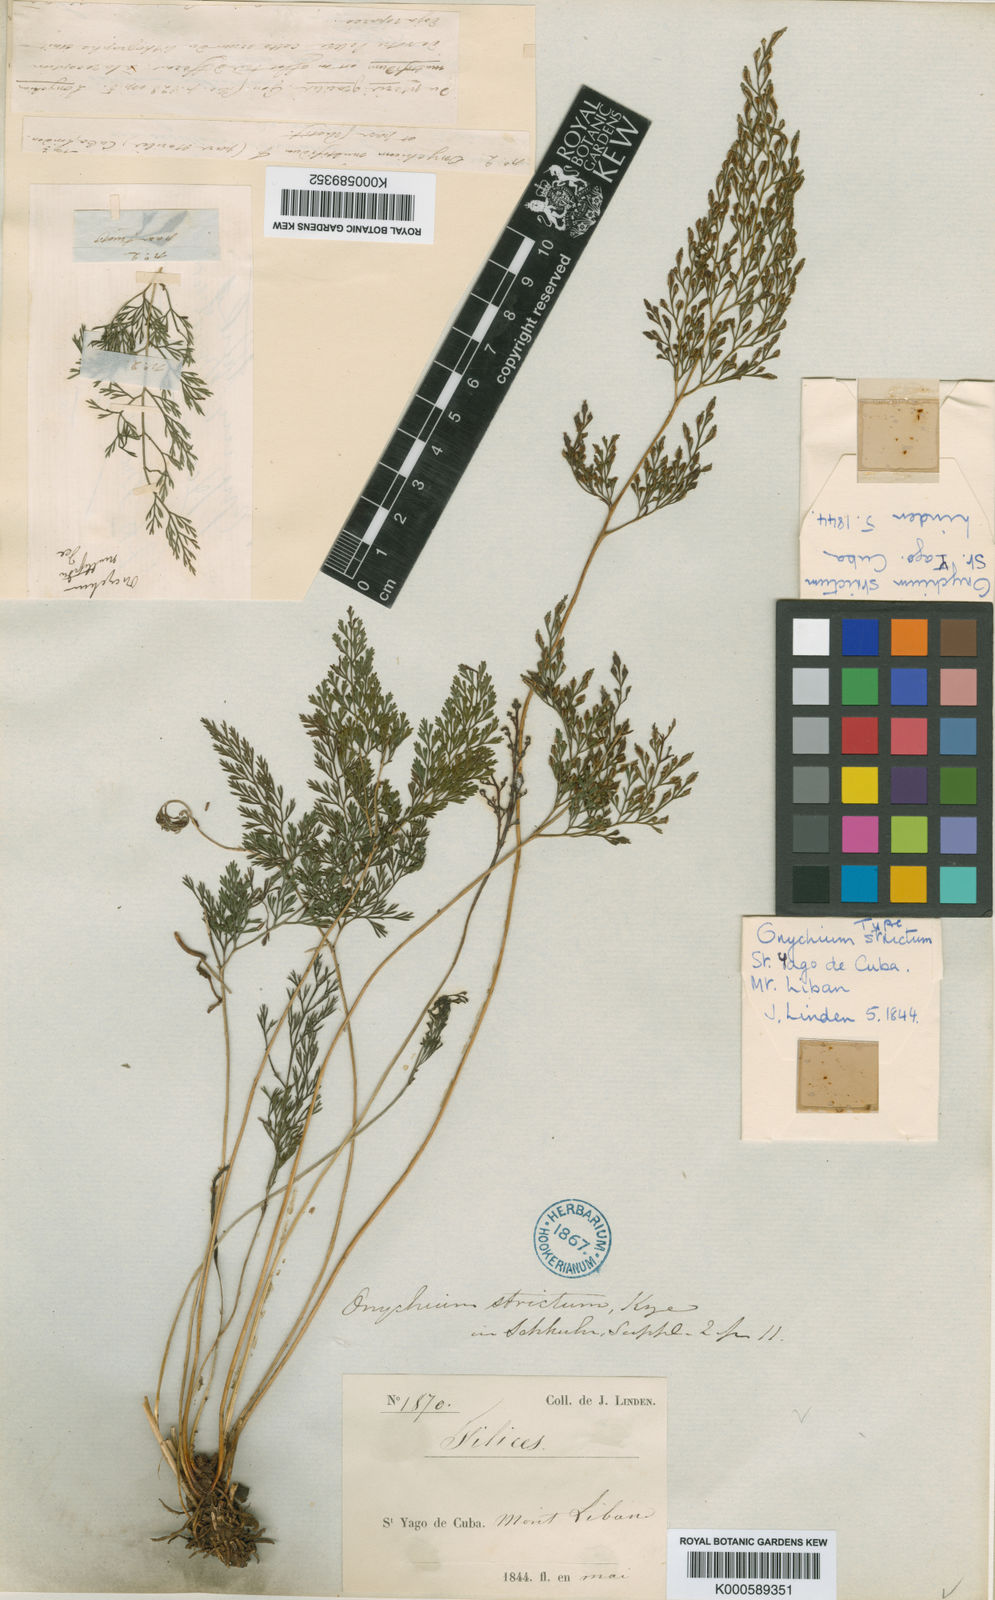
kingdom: Plantae
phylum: Tracheophyta
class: Polypodiopsida
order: Polypodiales
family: Pteridaceae
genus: Pteris
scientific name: Pteris hexagona
